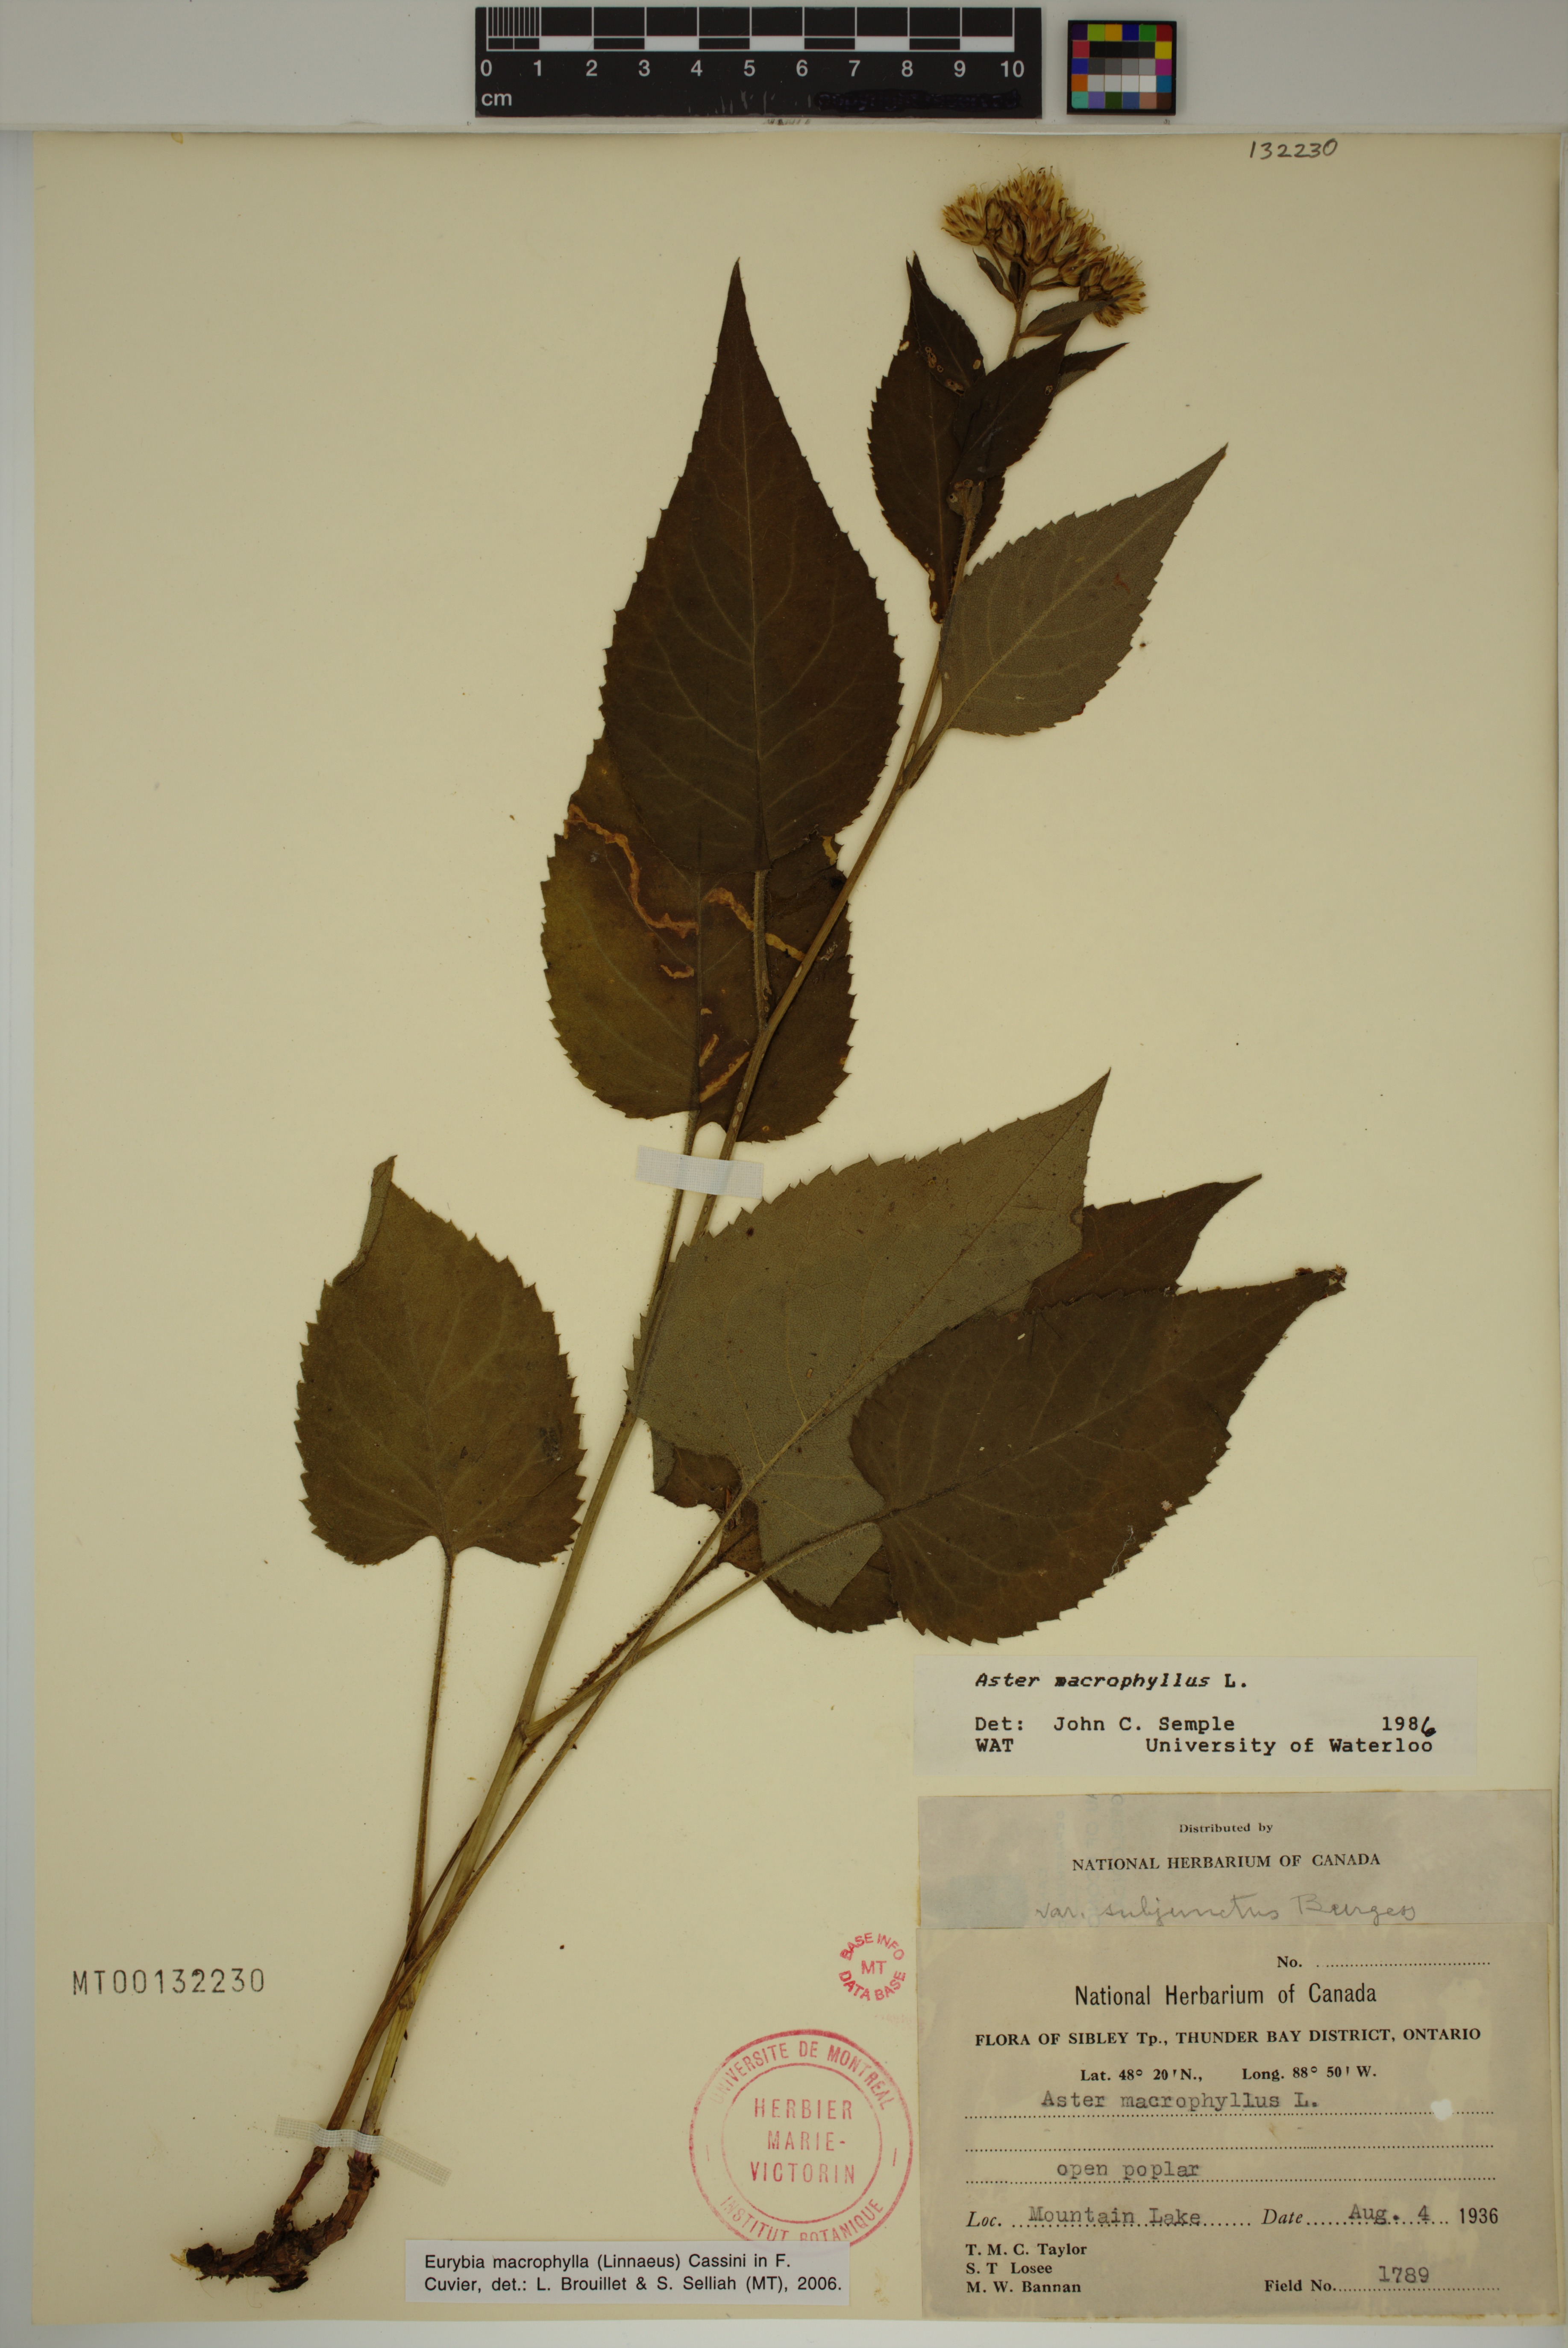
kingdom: Plantae
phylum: Tracheophyta
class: Magnoliopsida
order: Asterales
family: Asteraceae
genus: Eurybia
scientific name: Eurybia macrophylla
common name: Big-leaved aster
